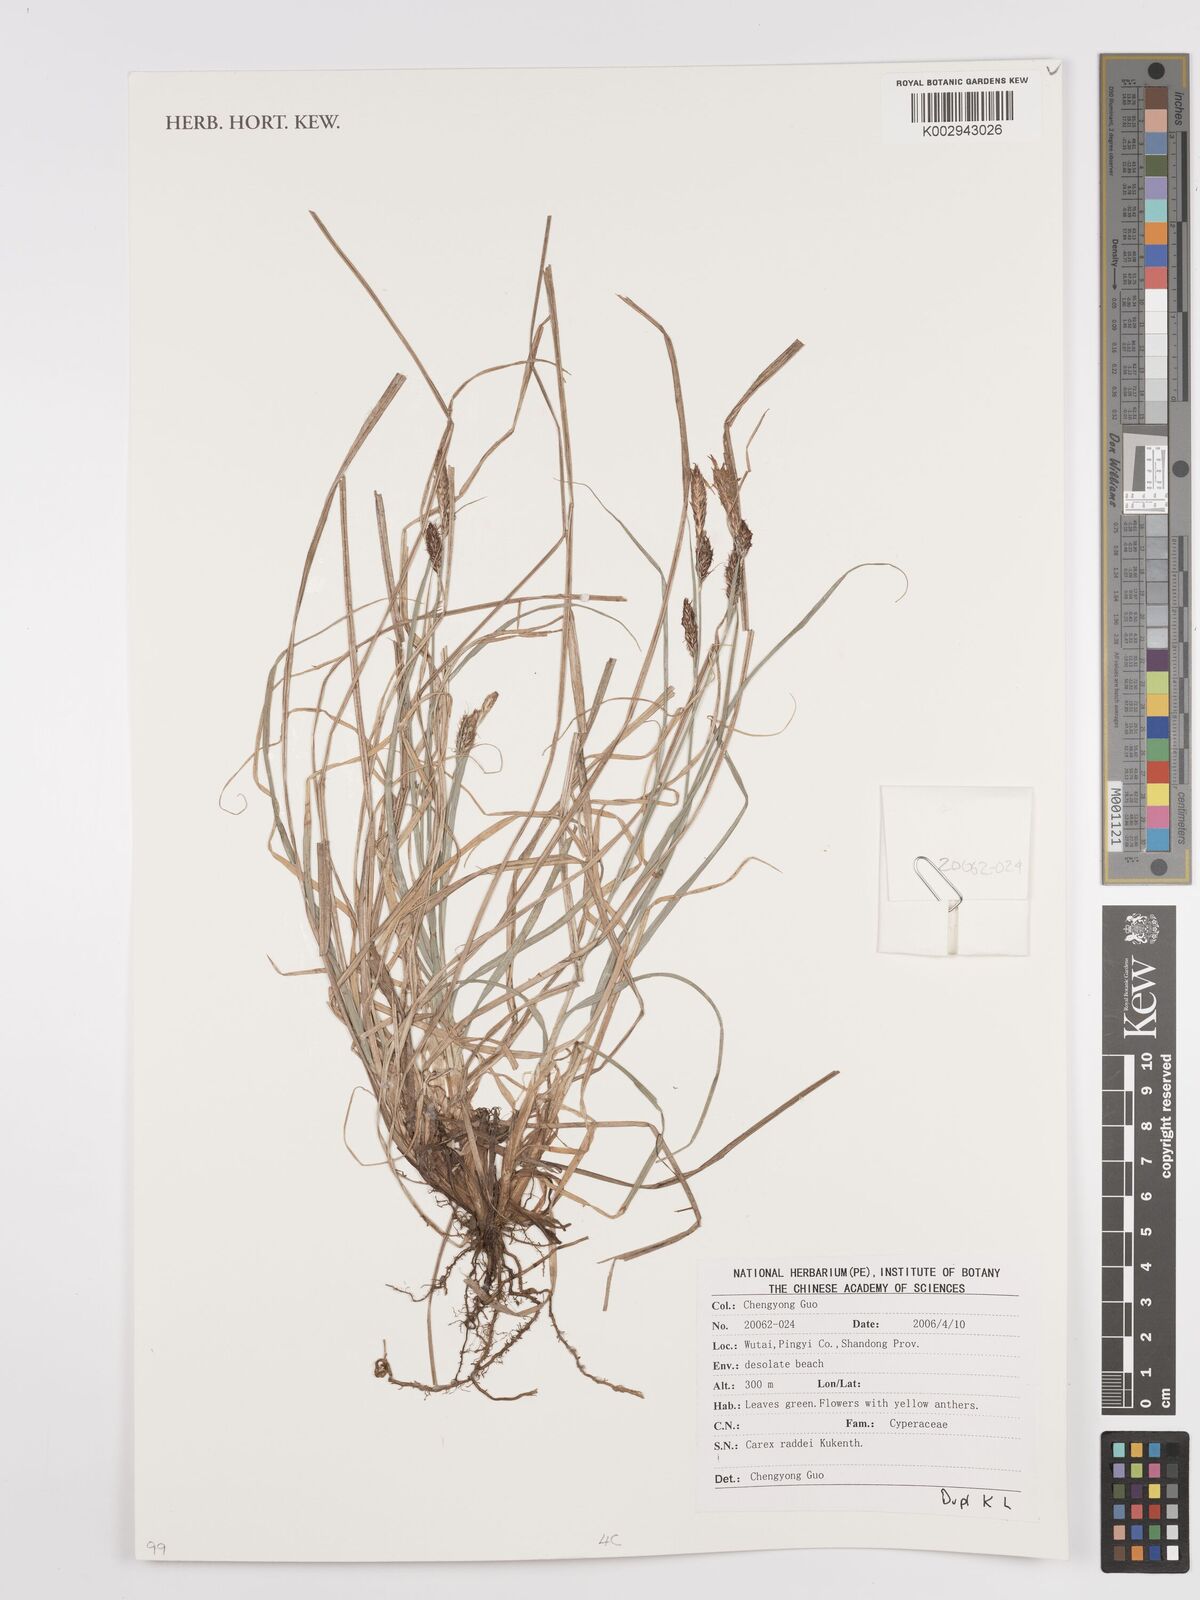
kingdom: Plantae
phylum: Tracheophyta
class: Liliopsida
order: Poales
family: Cyperaceae
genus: Carex
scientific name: Carex raddei
